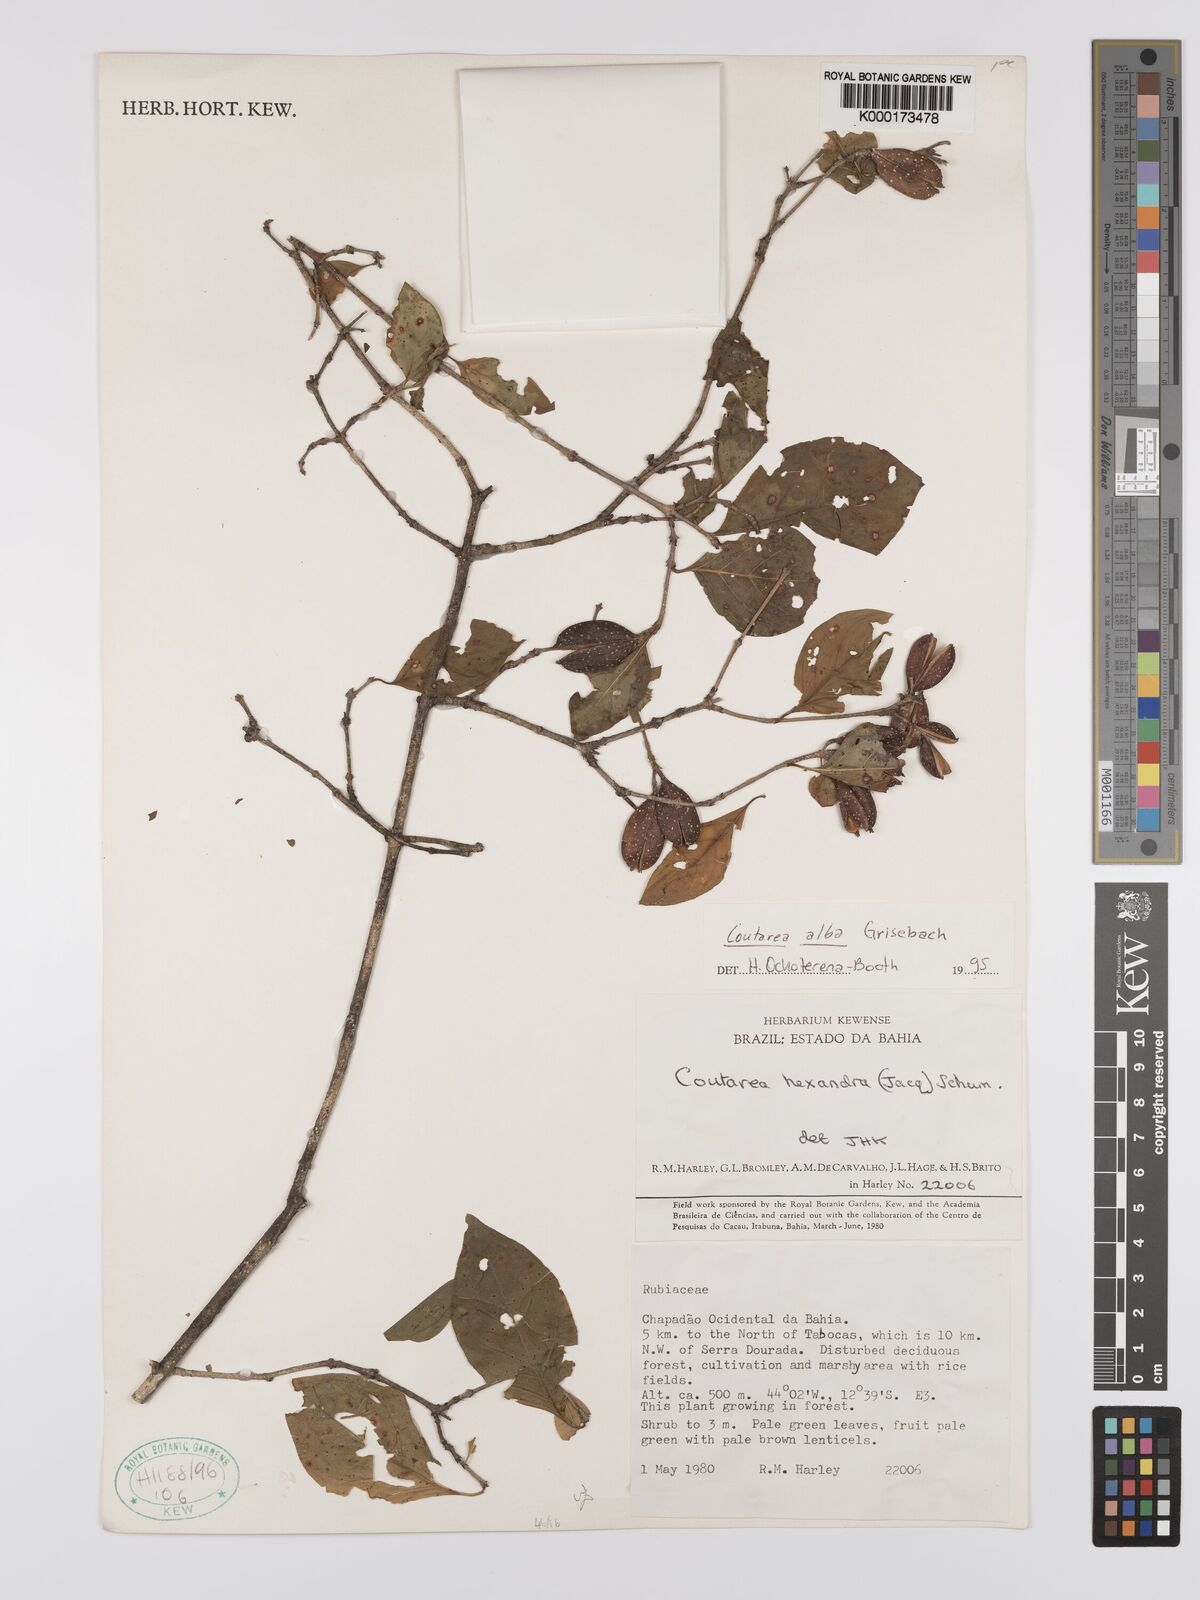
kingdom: Plantae
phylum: Tracheophyta
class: Magnoliopsida
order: Gentianales
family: Rubiaceae
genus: Coutarea
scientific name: Coutarea alba
